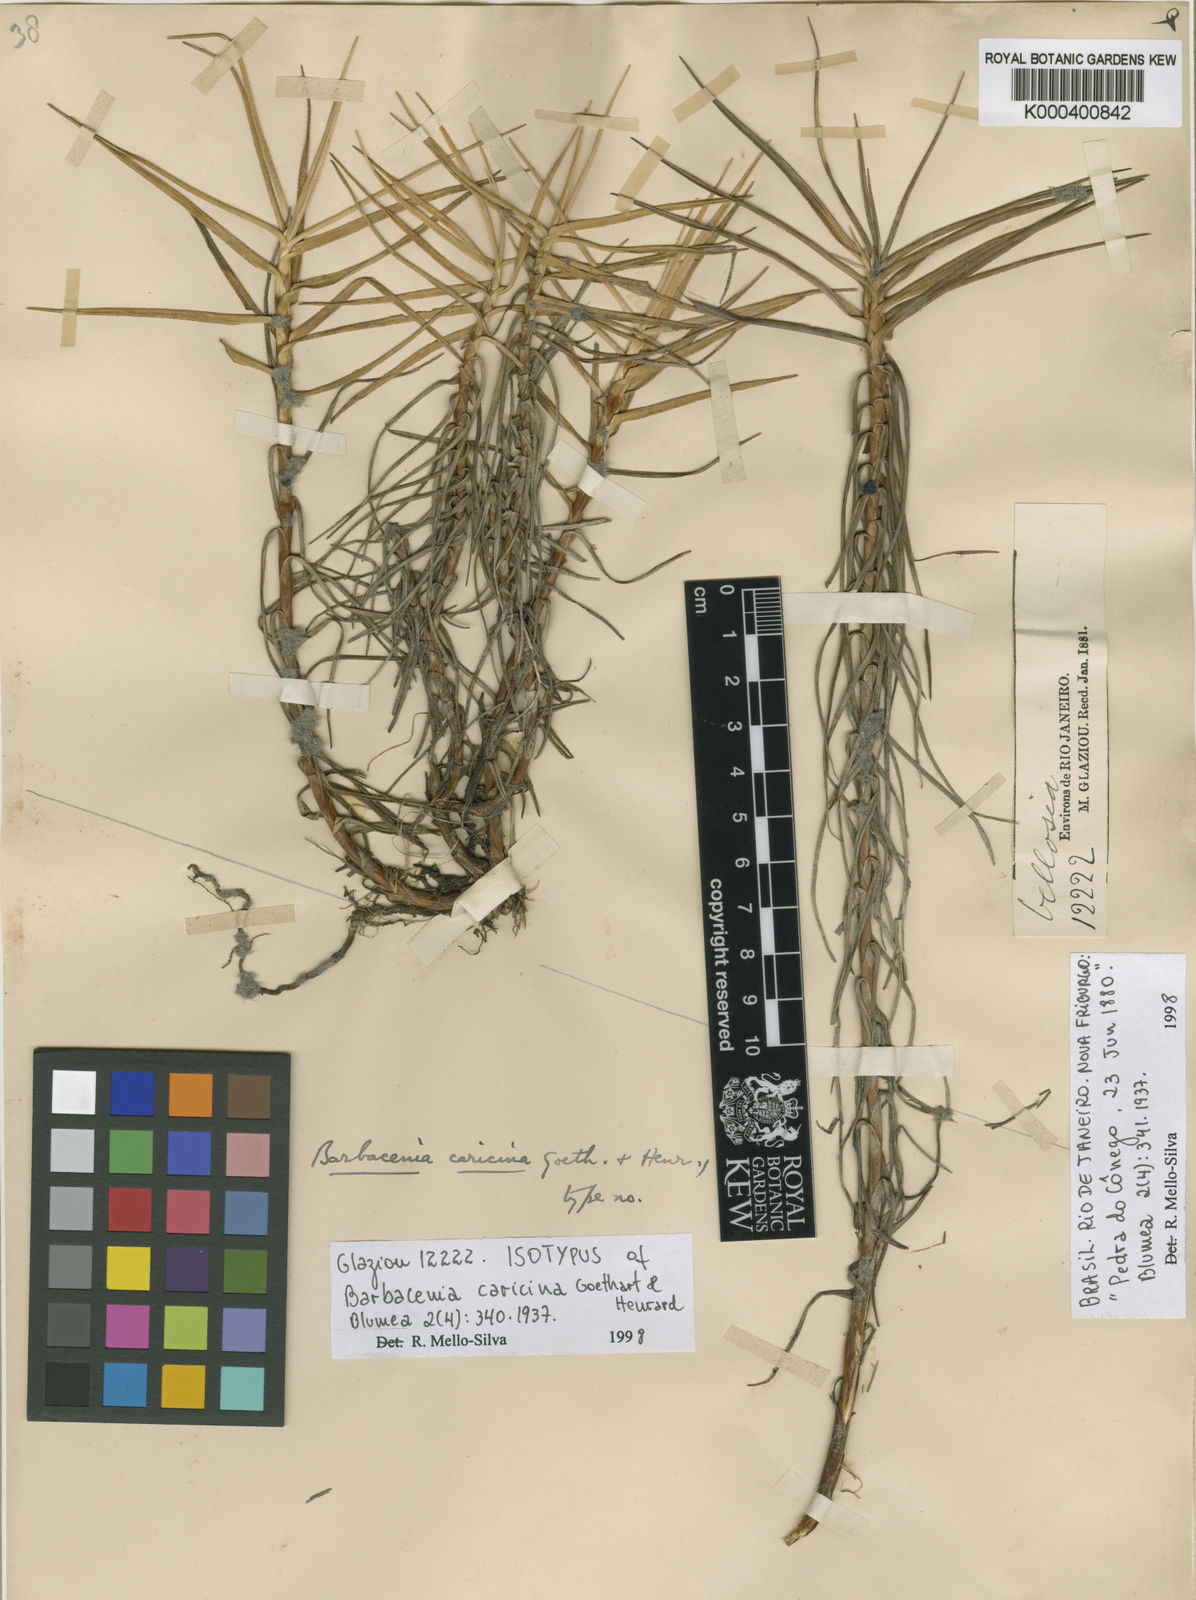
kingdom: Plantae
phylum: Tracheophyta
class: Liliopsida
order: Pandanales
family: Velloziaceae
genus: Barbacenia
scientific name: Barbacenia caricina
